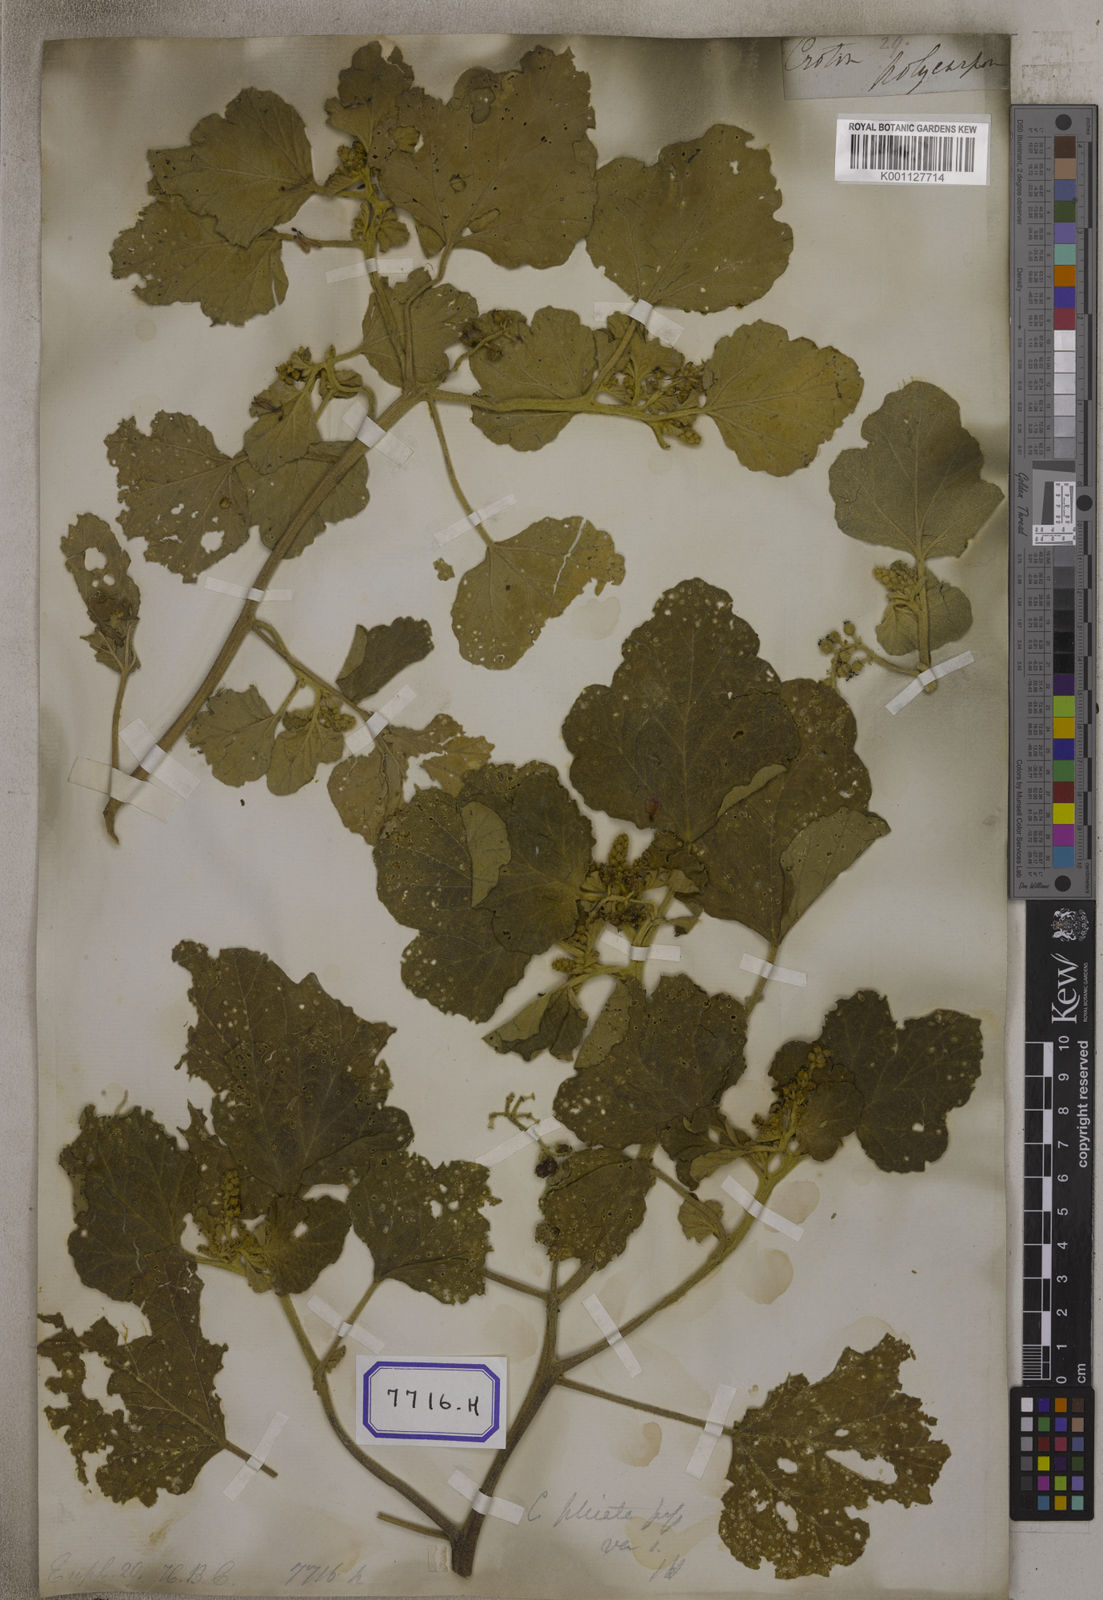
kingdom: Plantae
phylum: Tracheophyta
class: Magnoliopsida
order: Malpighiales
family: Euphorbiaceae
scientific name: Euphorbiaceae
